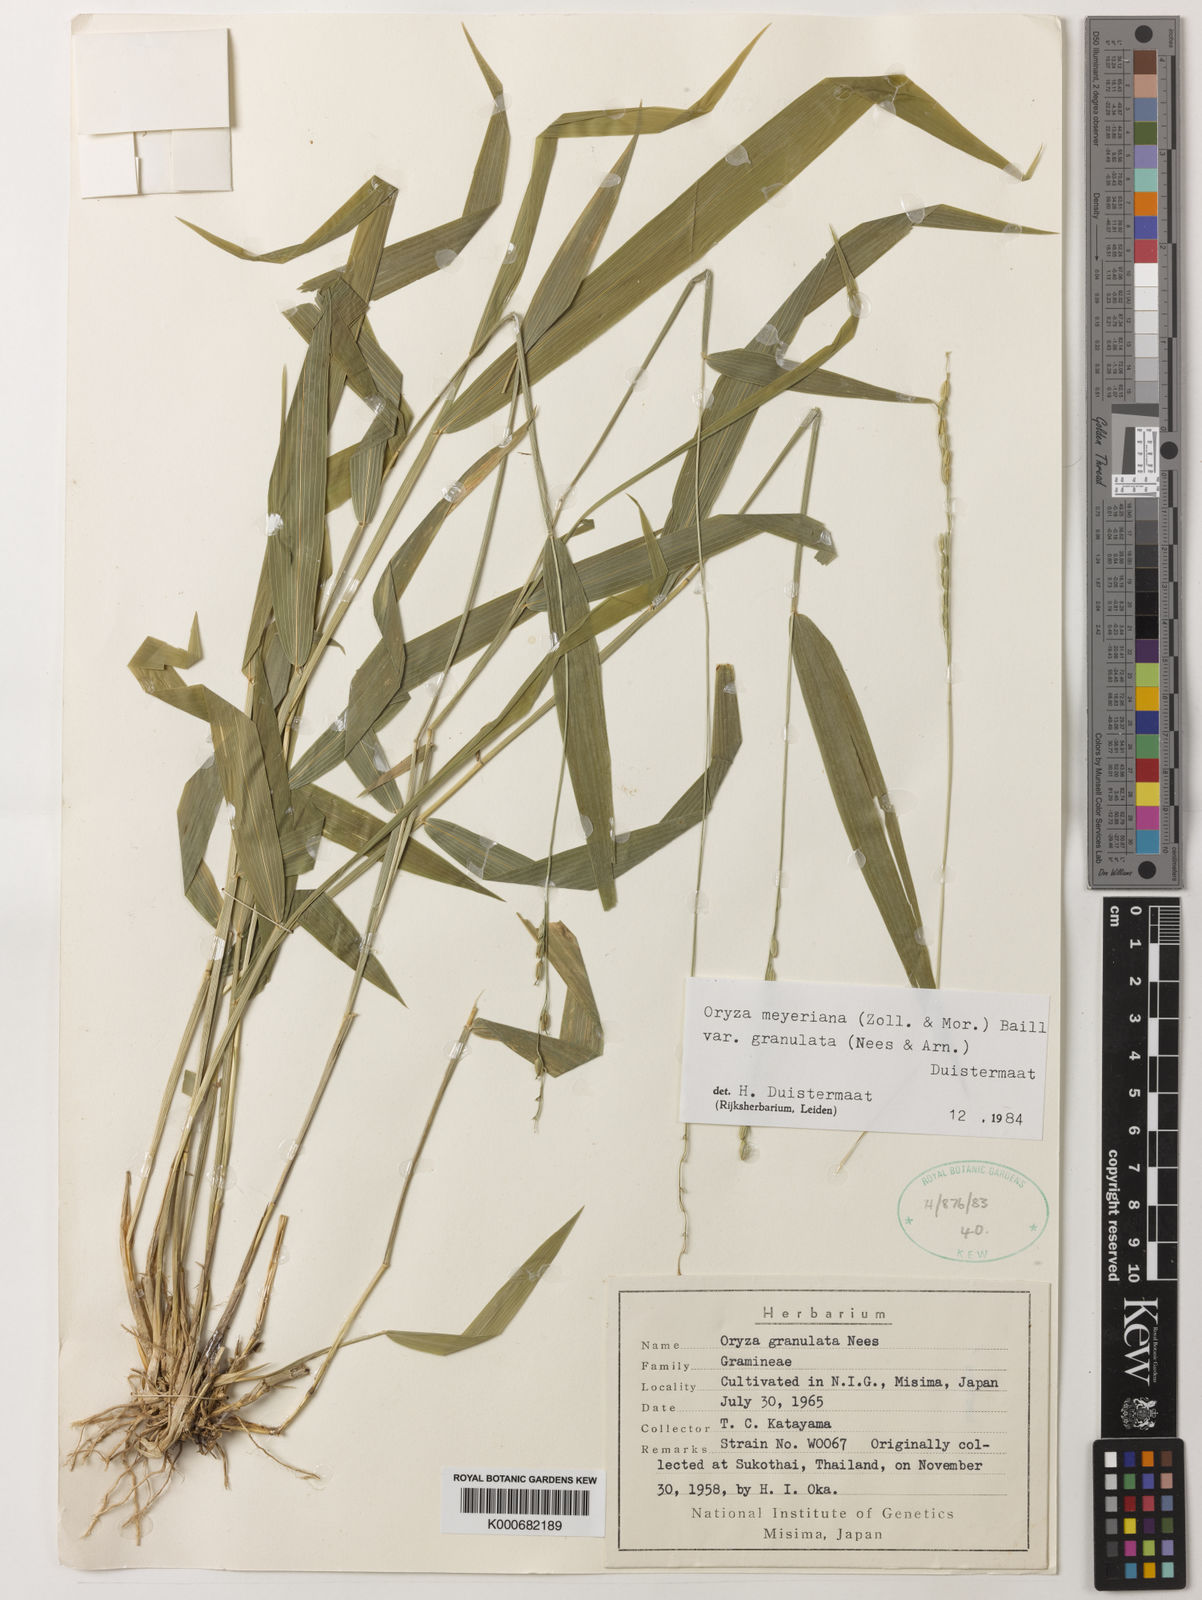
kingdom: Plantae
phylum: Tracheophyta
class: Liliopsida
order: Poales
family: Poaceae
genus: Oryza
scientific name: Oryza meyeriana
